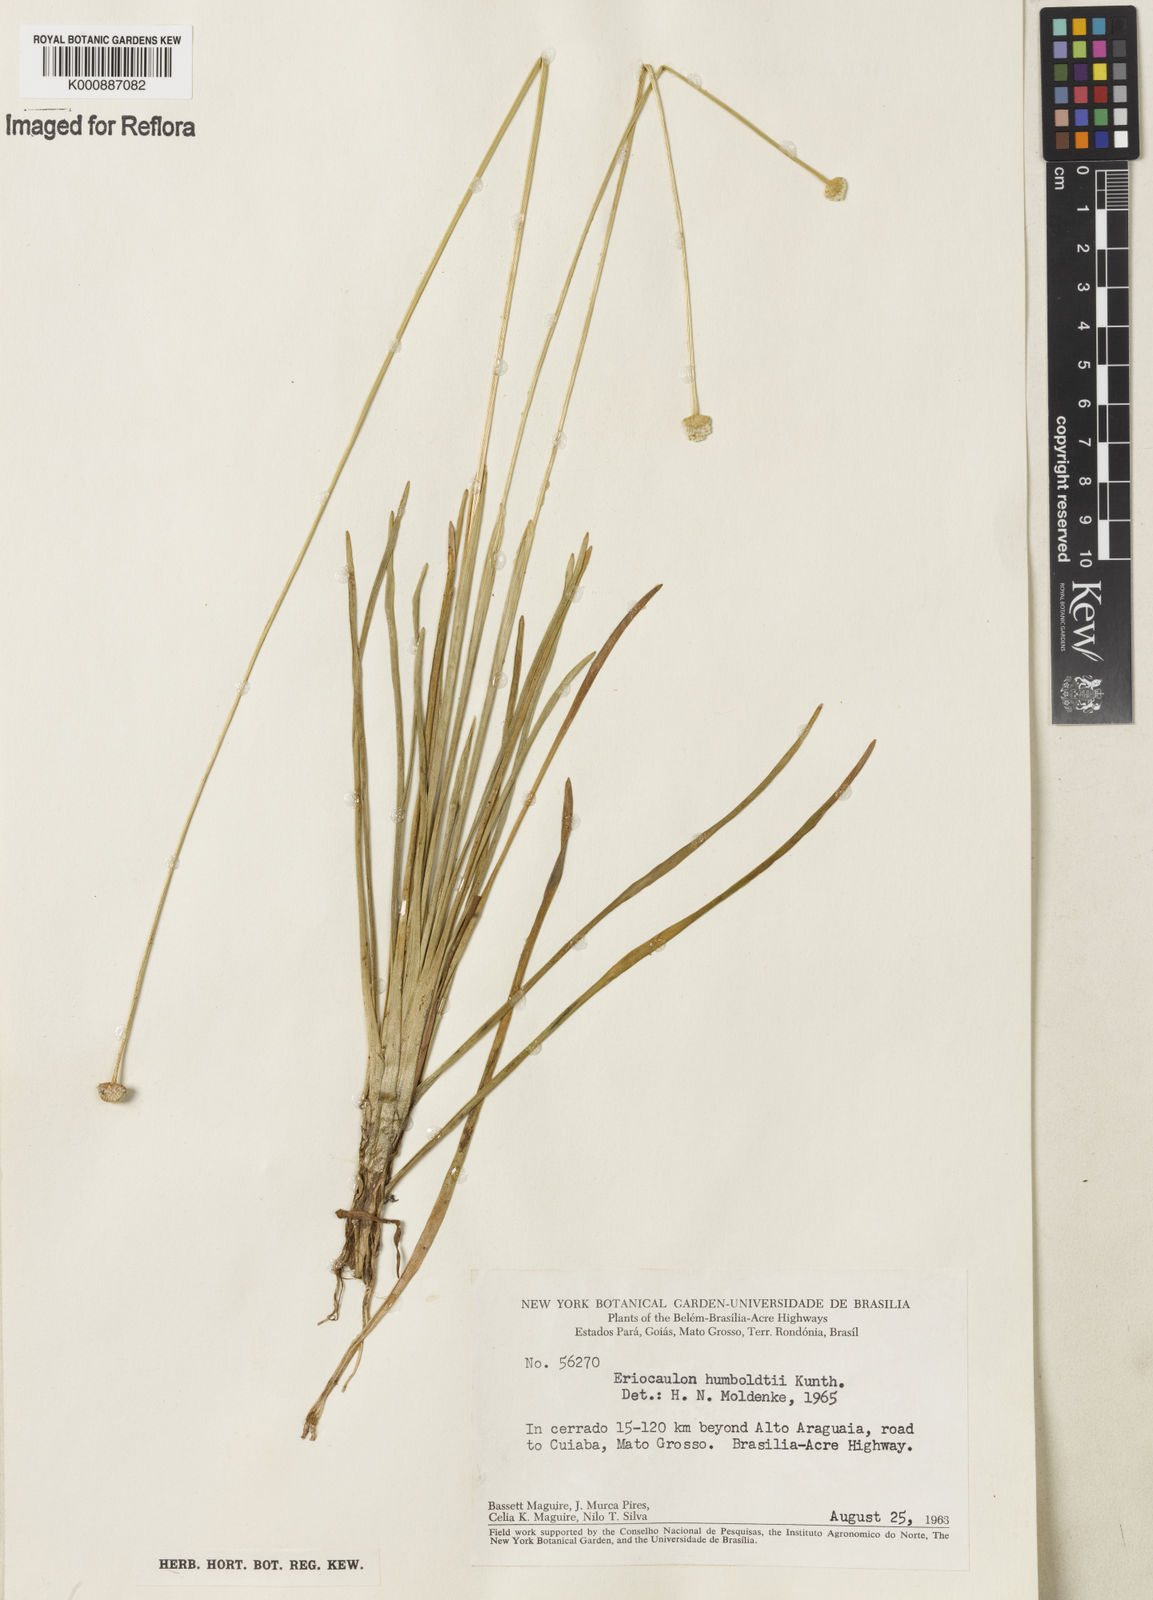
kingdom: Plantae
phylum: Tracheophyta
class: Liliopsida
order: Poales
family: Eriocaulaceae
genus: Eriocaulon
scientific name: Eriocaulon humboldtii
